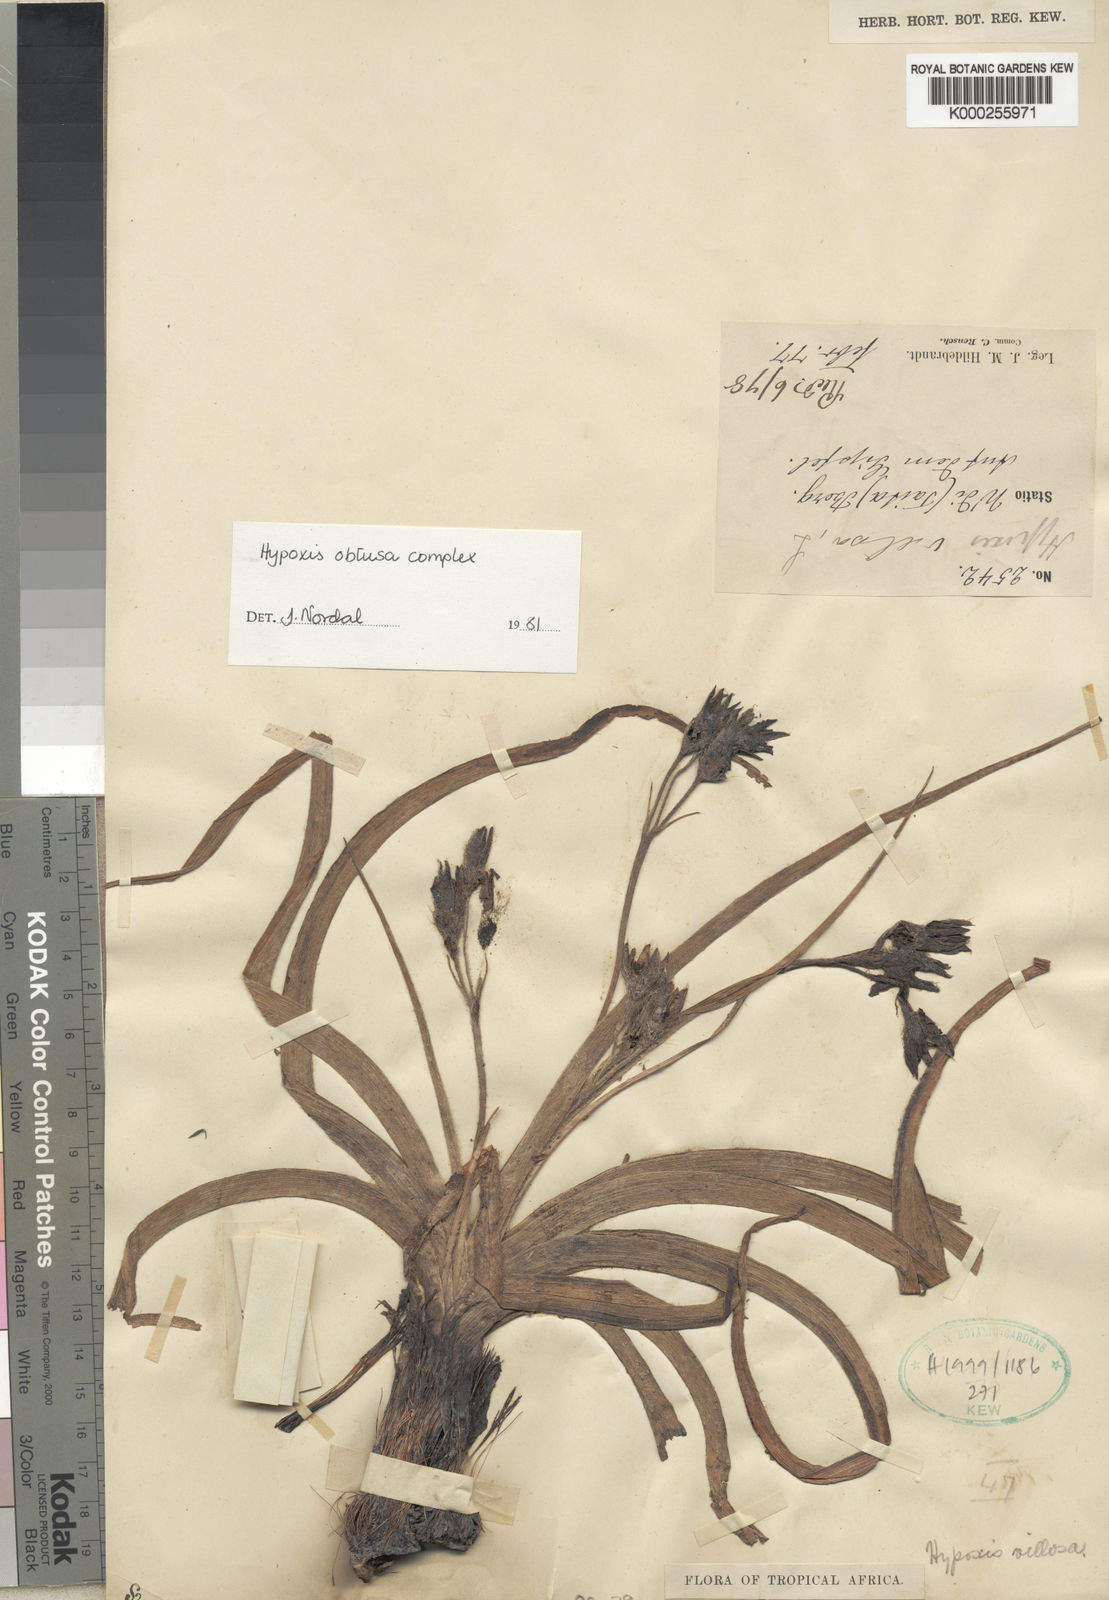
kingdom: Plantae
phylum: Tracheophyta
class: Liliopsida
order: Asparagales
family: Hypoxidaceae
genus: Hypoxis
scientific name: Hypoxis urceolata
